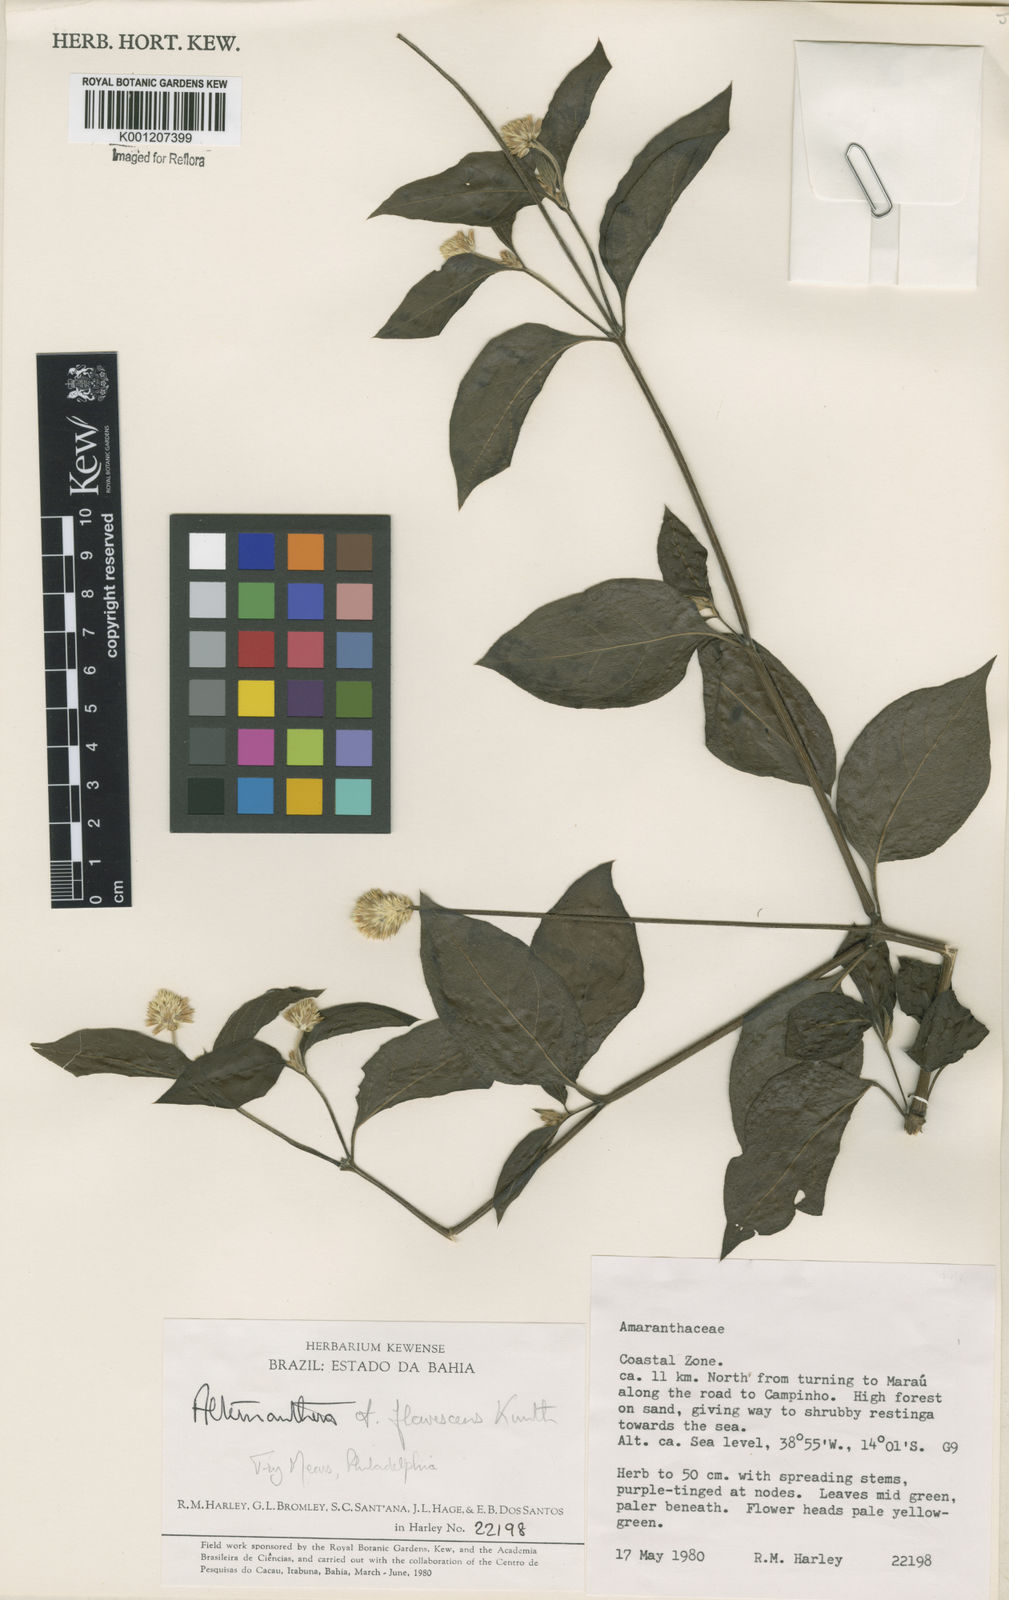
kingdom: Plantae
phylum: Tracheophyta
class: Magnoliopsida
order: Caryophyllales
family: Amaranthaceae
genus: Alternanthera
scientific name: Alternanthera
